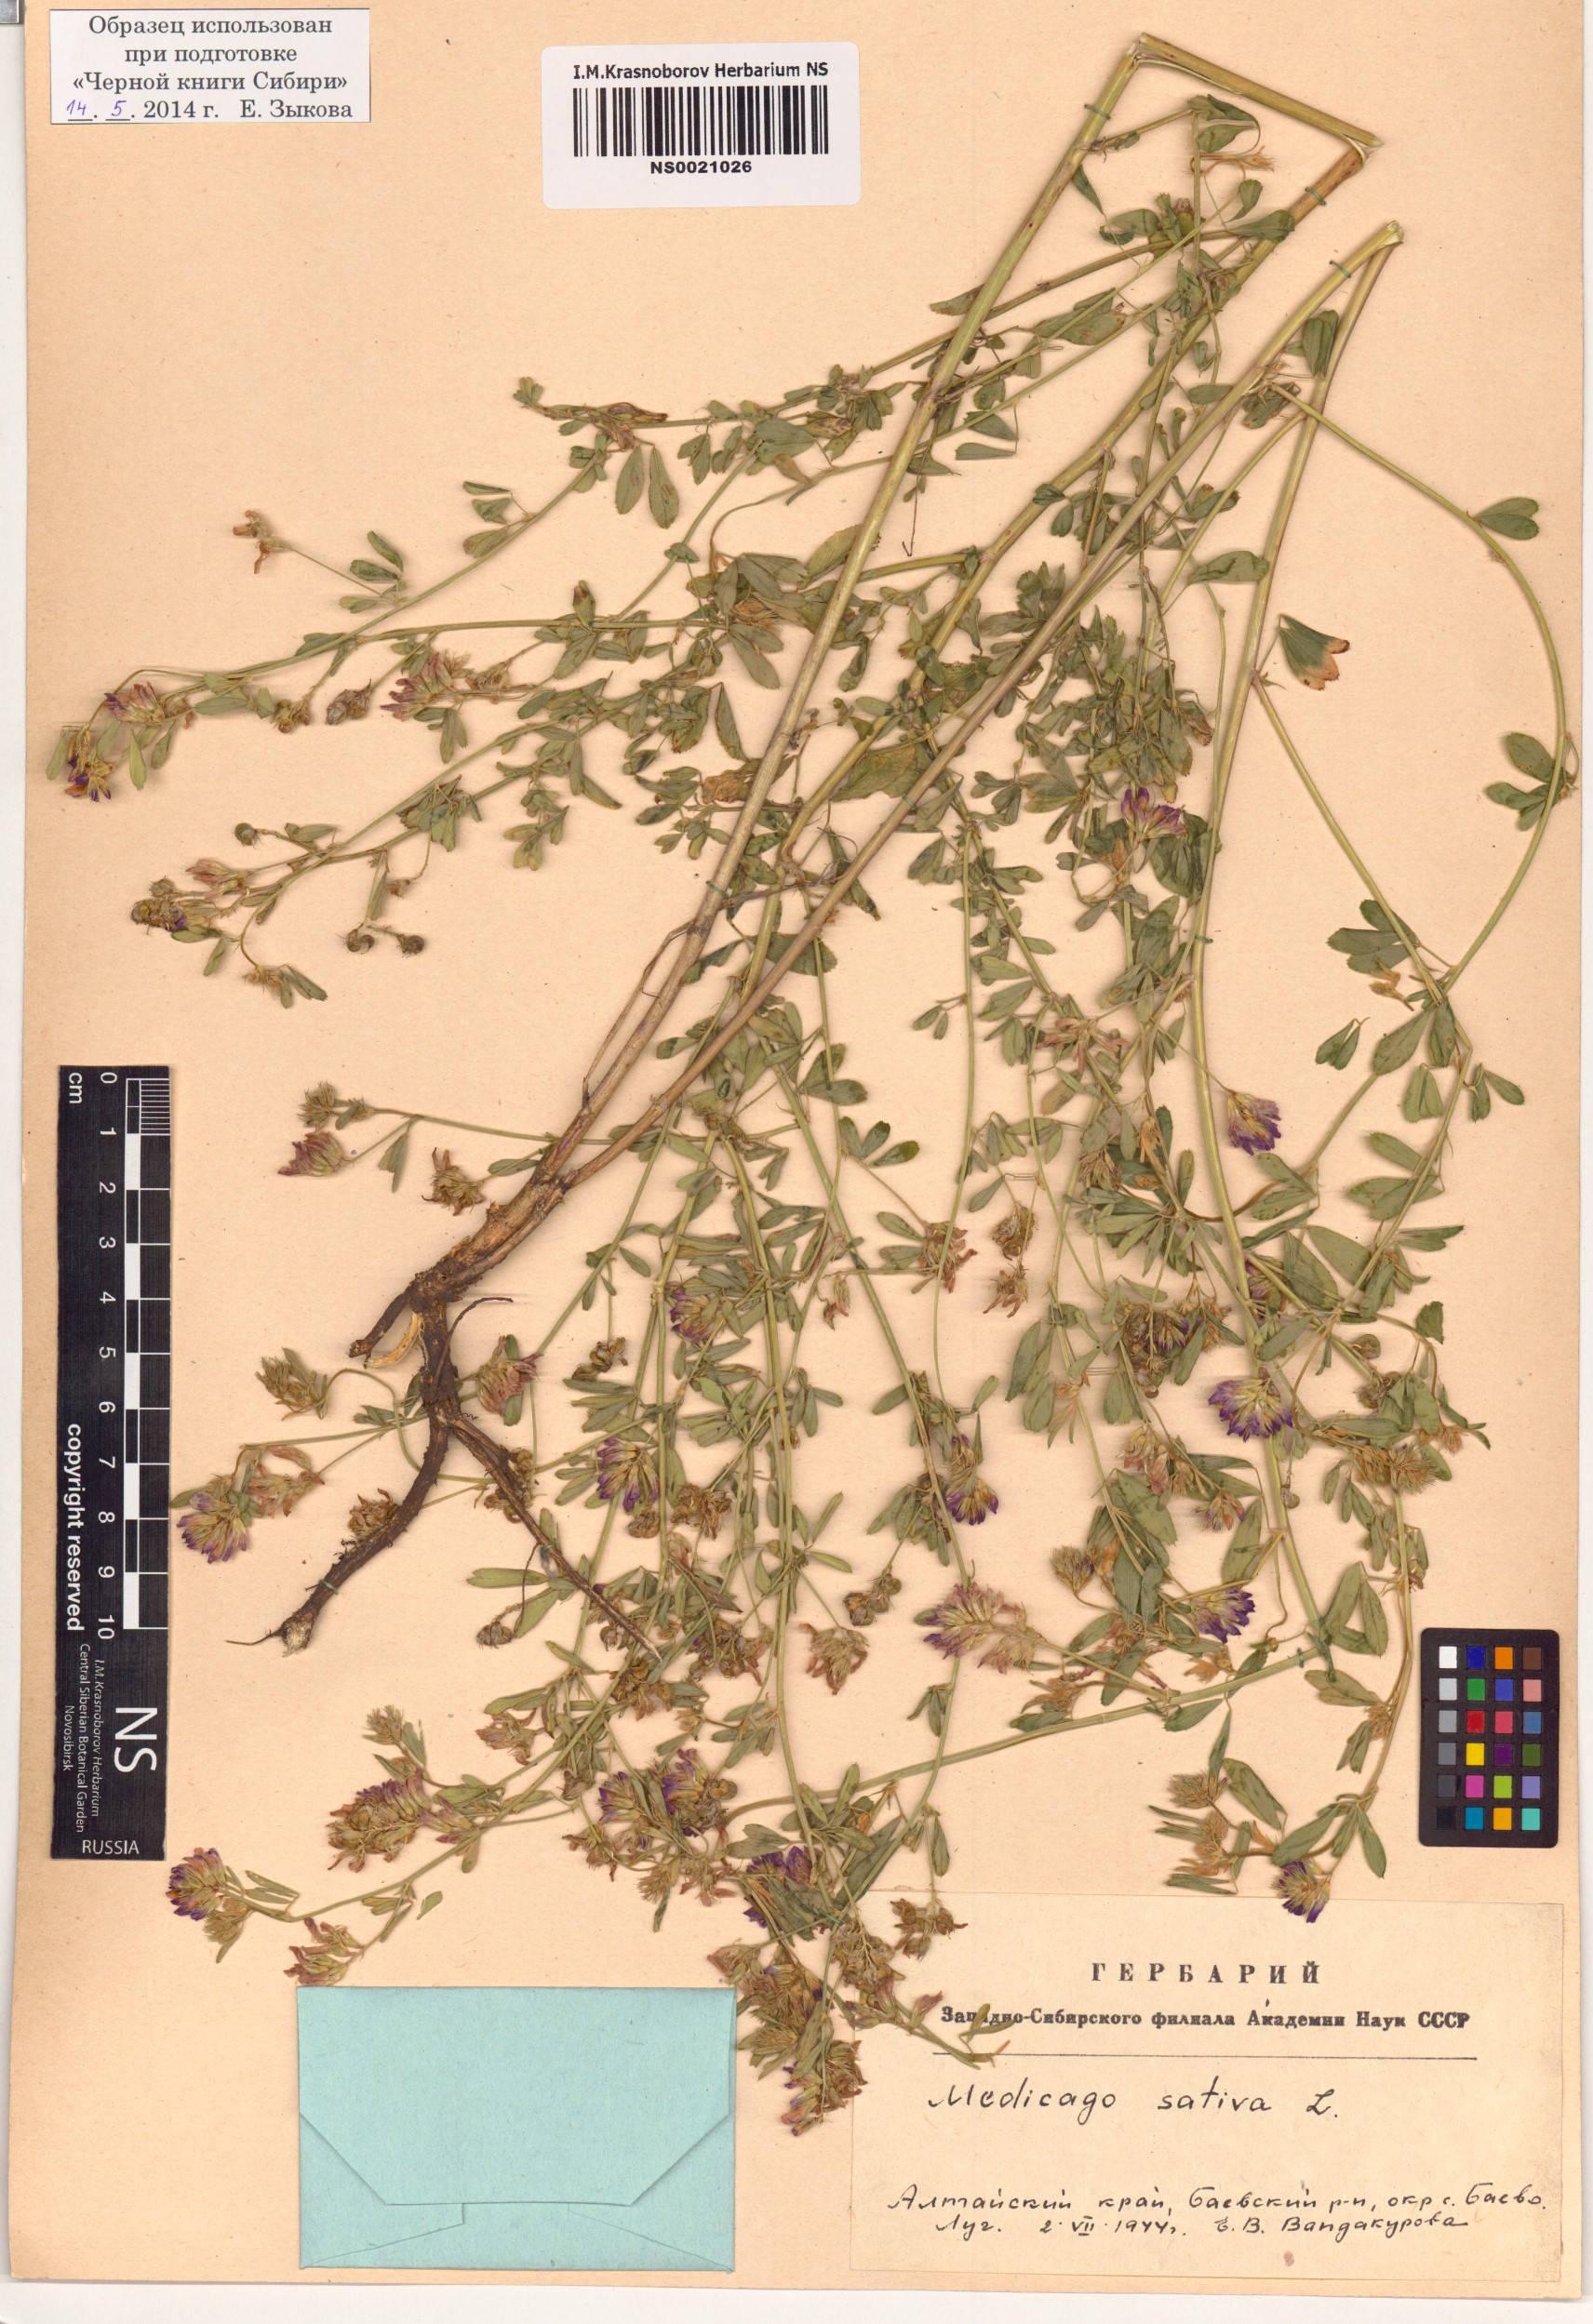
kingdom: Plantae
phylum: Tracheophyta
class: Magnoliopsida
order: Fabales
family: Fabaceae
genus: Medicago
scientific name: Medicago sativa
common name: Alfalfa
